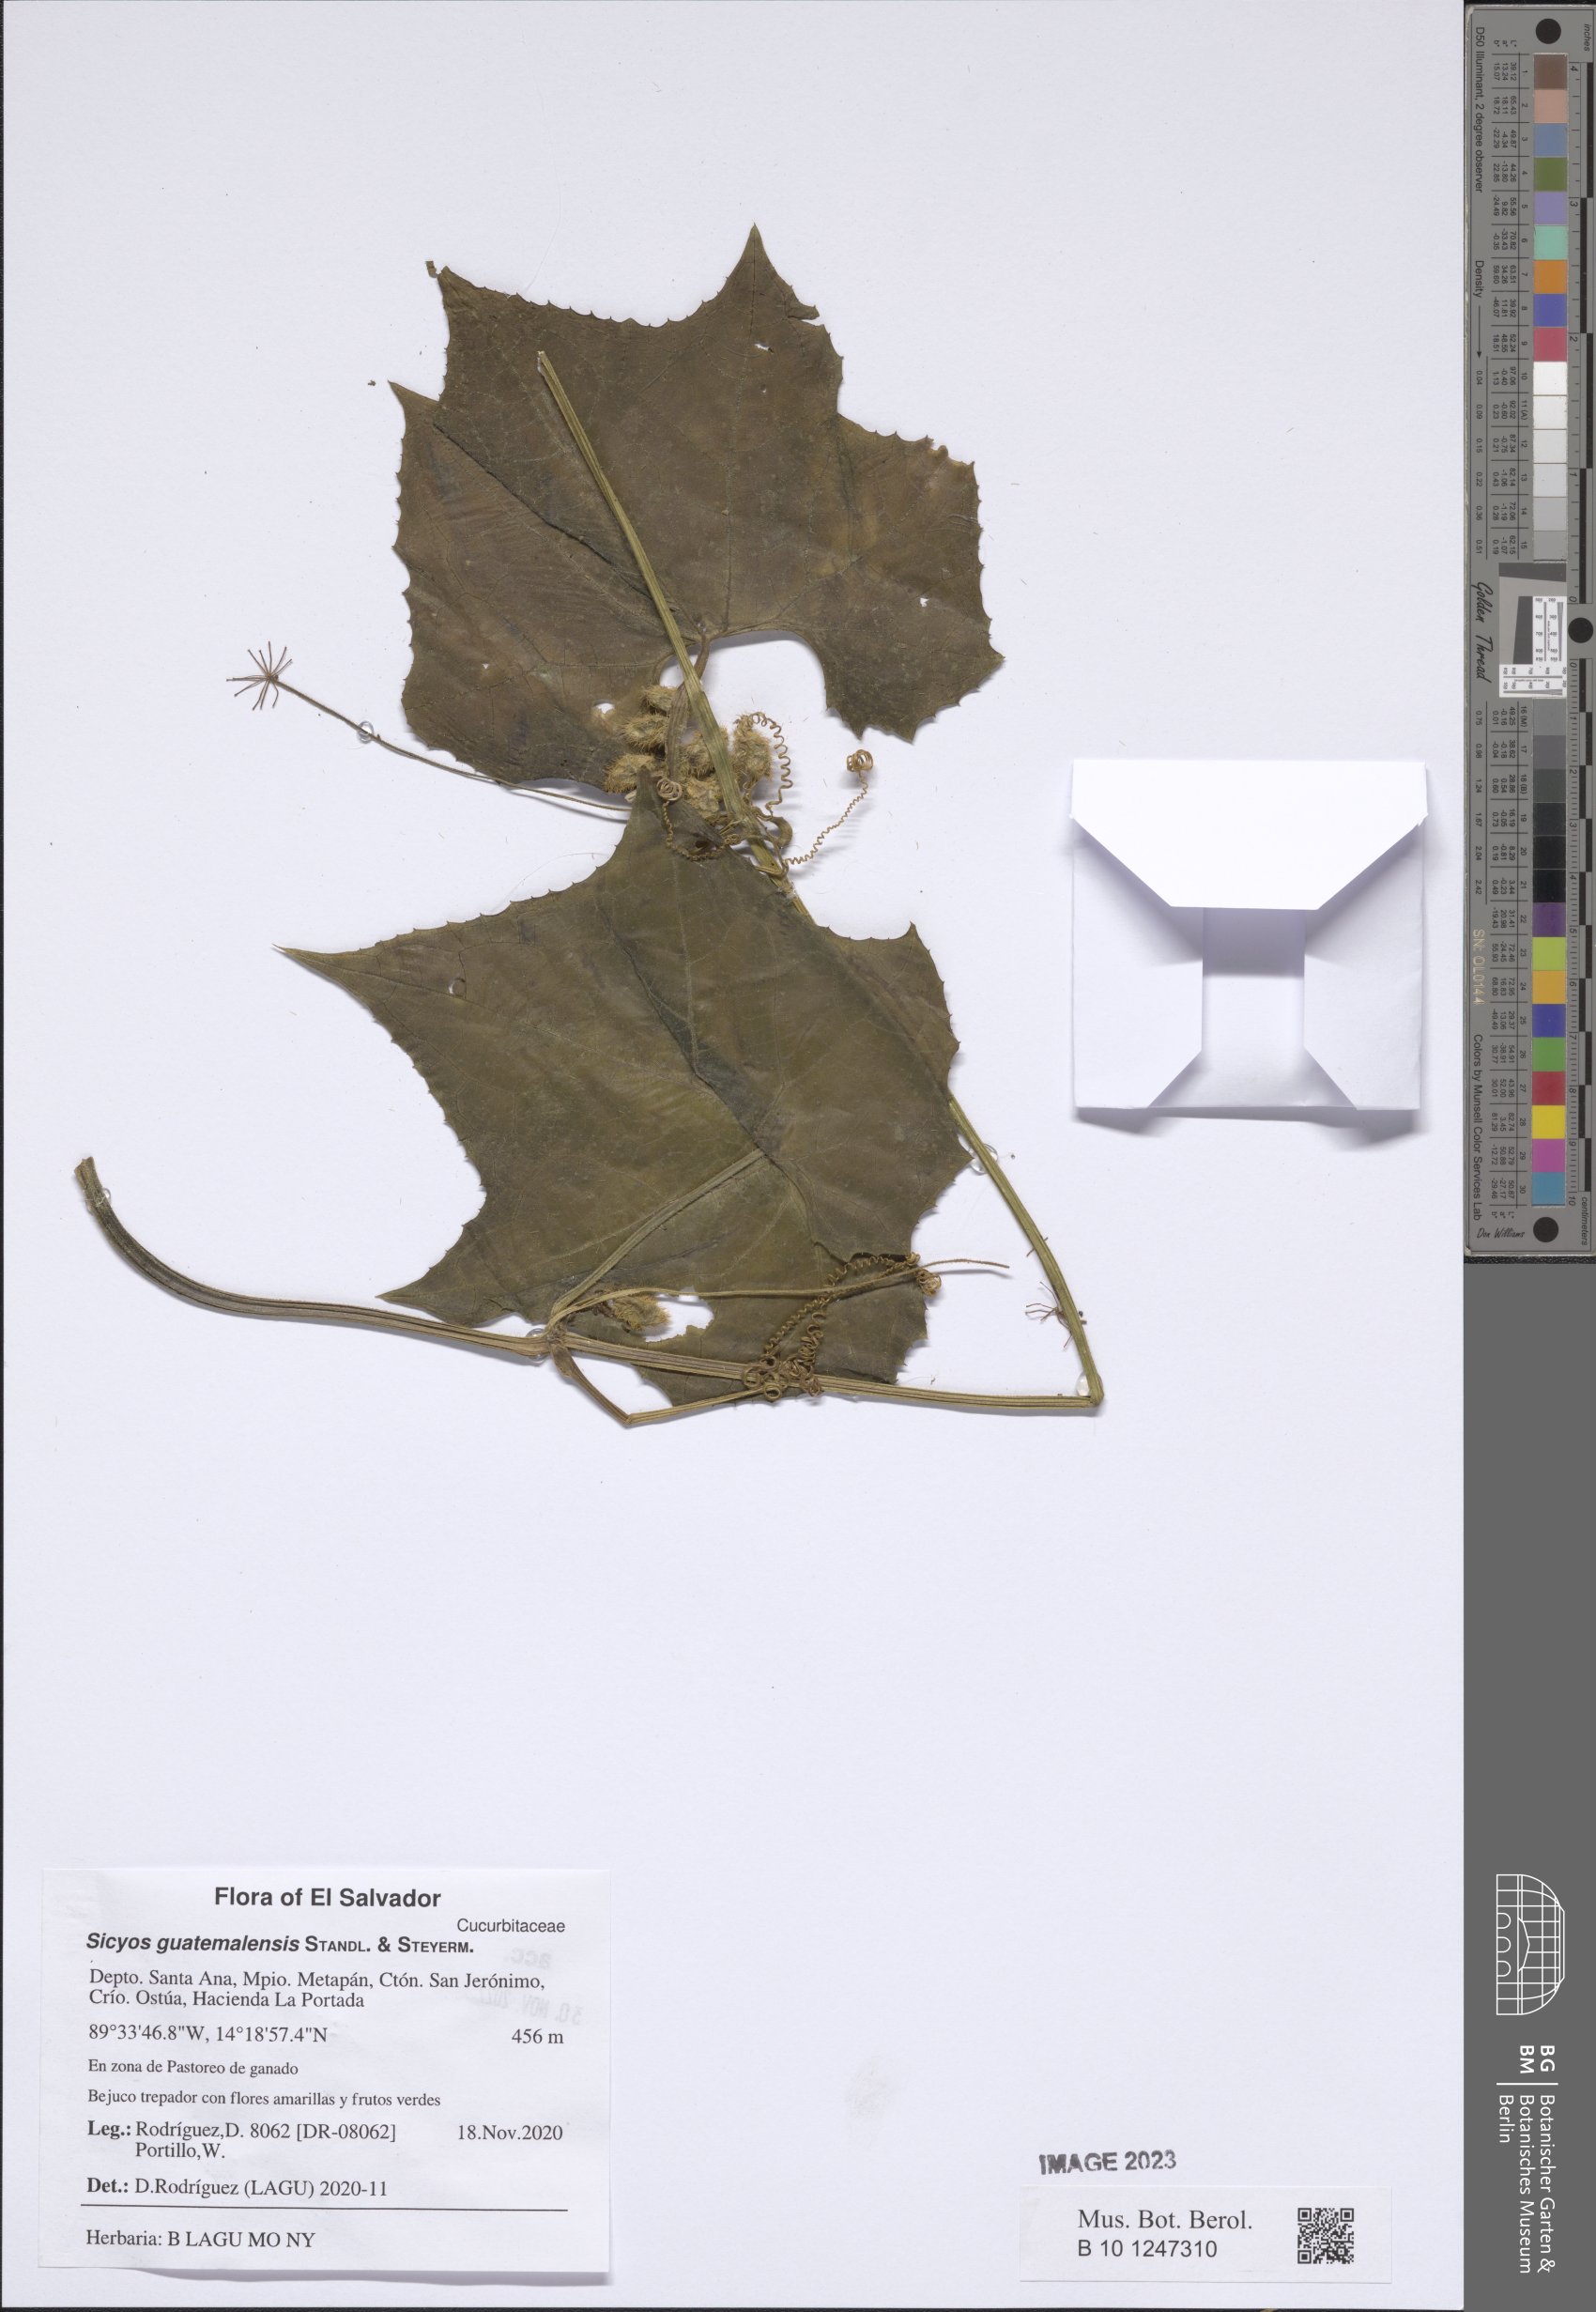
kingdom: Plantae
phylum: Tracheophyta
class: Magnoliopsida
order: Cucurbitales
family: Cucurbitaceae
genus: Sicyos
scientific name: Sicyos guatemalensis
